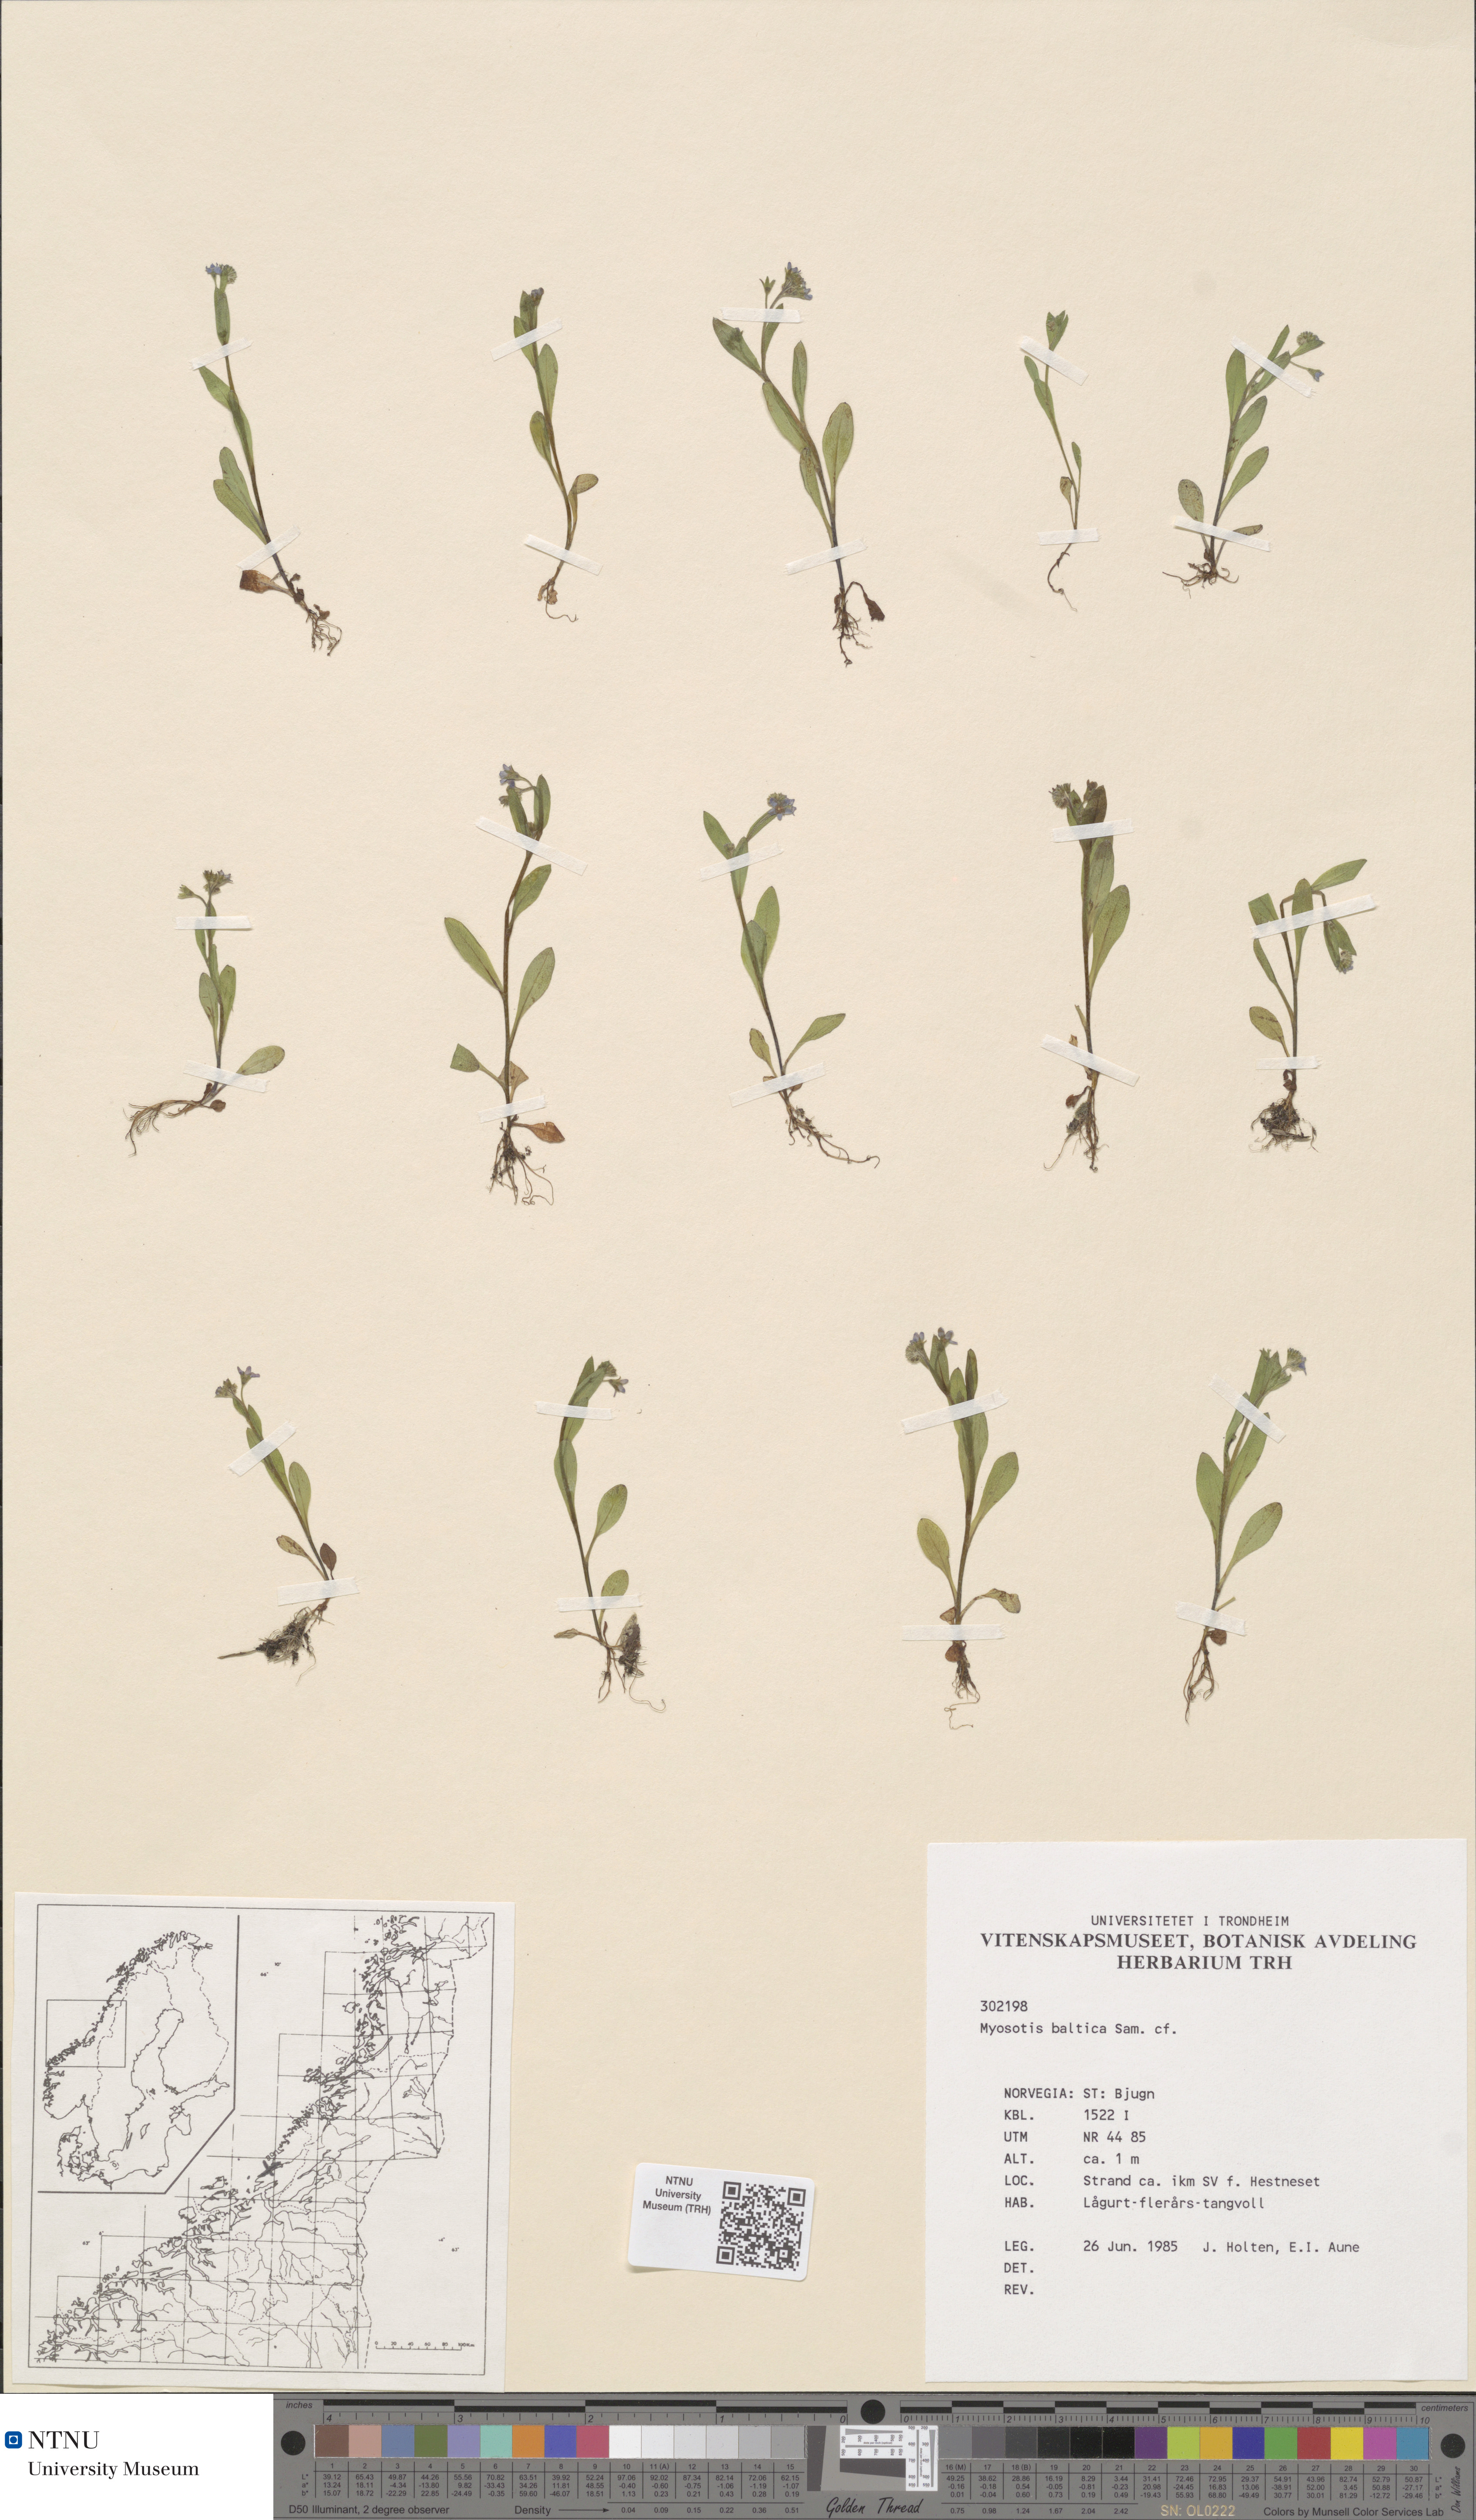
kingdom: Plantae
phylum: Tracheophyta
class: Magnoliopsida
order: Boraginales
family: Boraginaceae
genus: Myosotis
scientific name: Myosotis laxa
